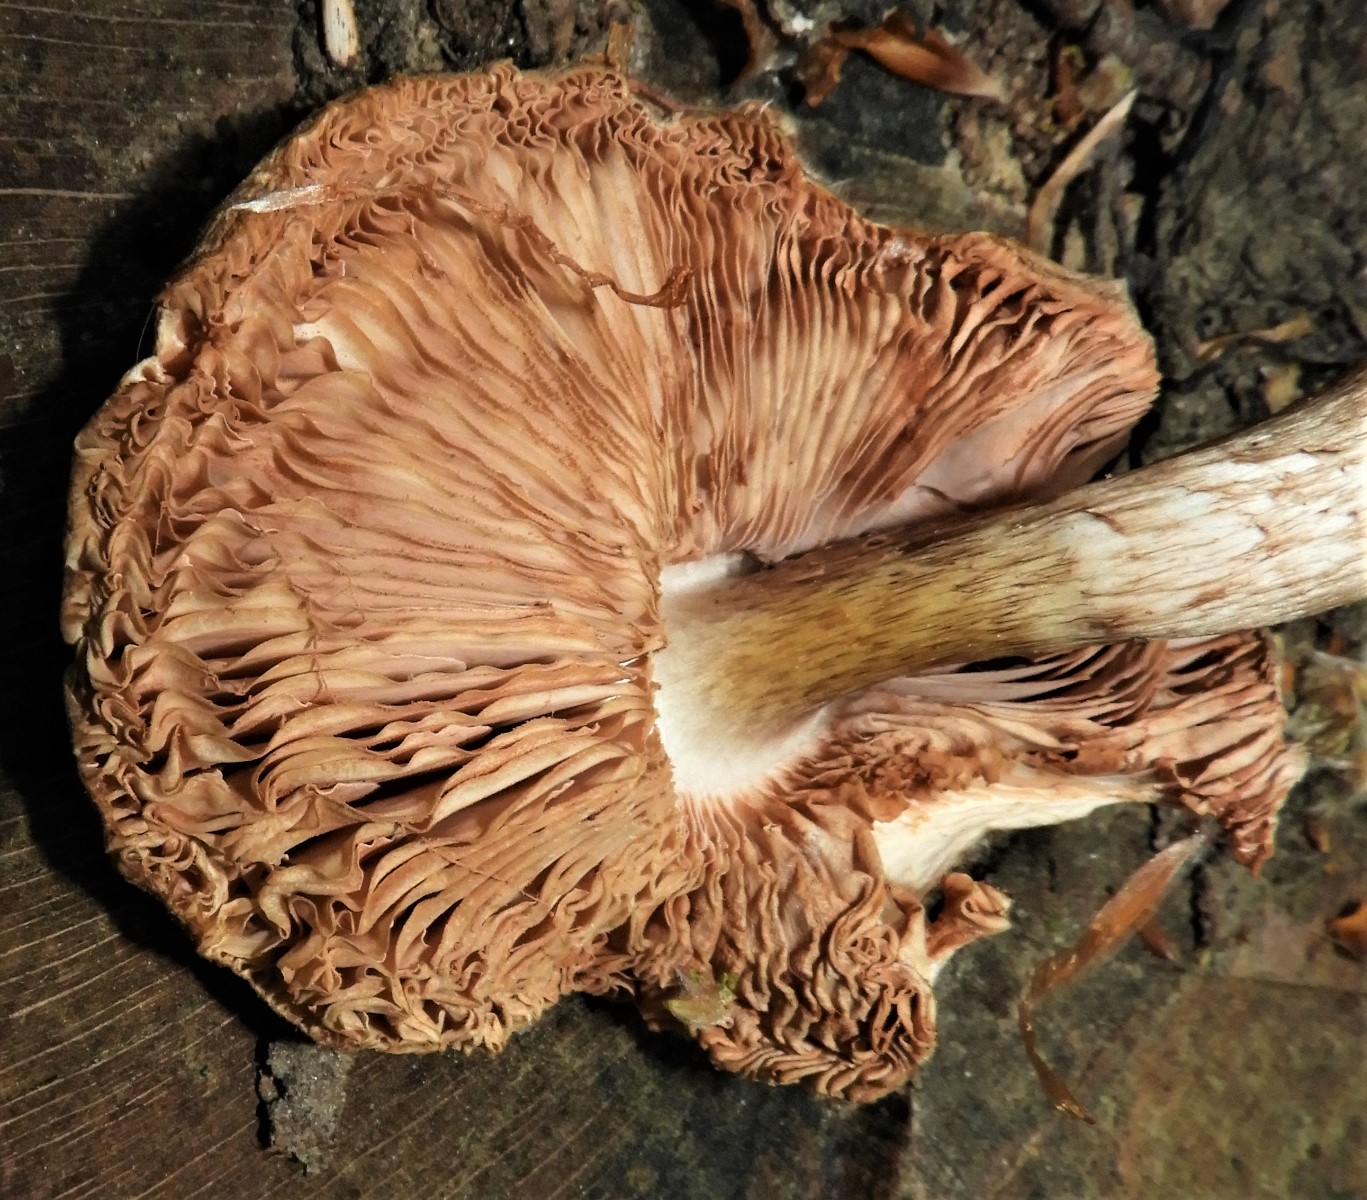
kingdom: Fungi
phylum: Basidiomycota
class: Agaricomycetes
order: Agaricales
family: Pleurotaceae
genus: Pleurotus
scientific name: Pleurotus ostreatus
